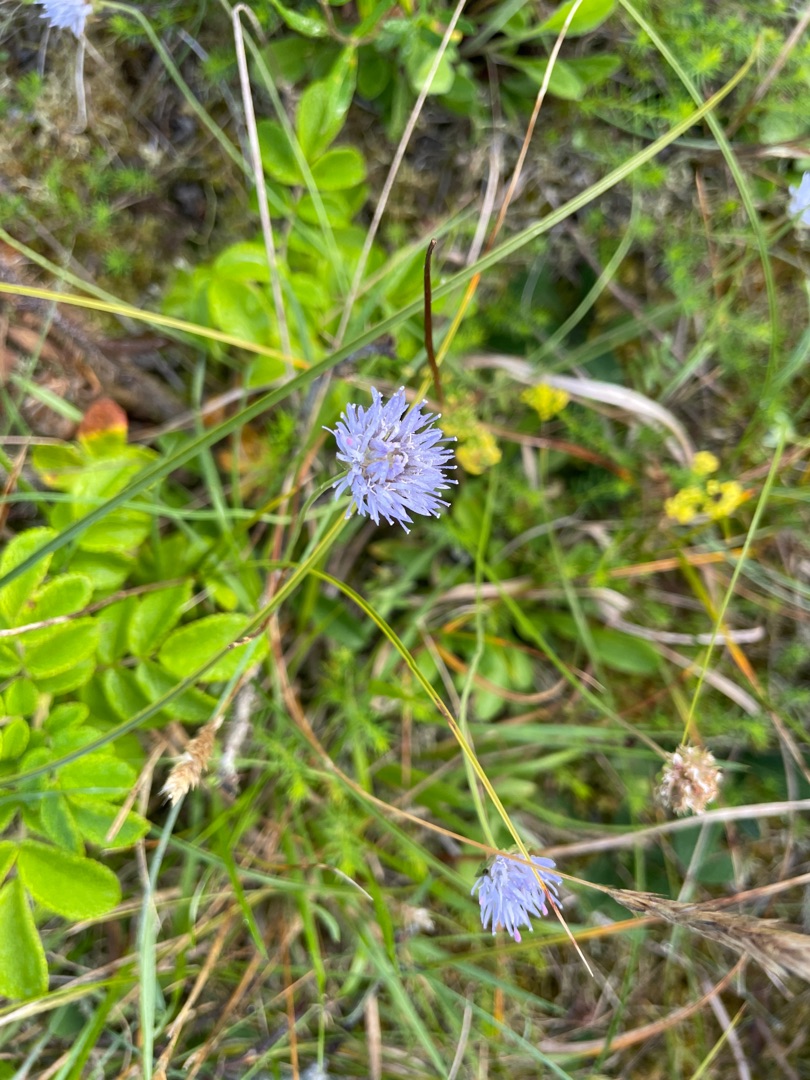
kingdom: Plantae
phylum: Tracheophyta
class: Magnoliopsida
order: Asterales
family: Campanulaceae
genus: Jasione
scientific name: Jasione montana
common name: Blåmunke
